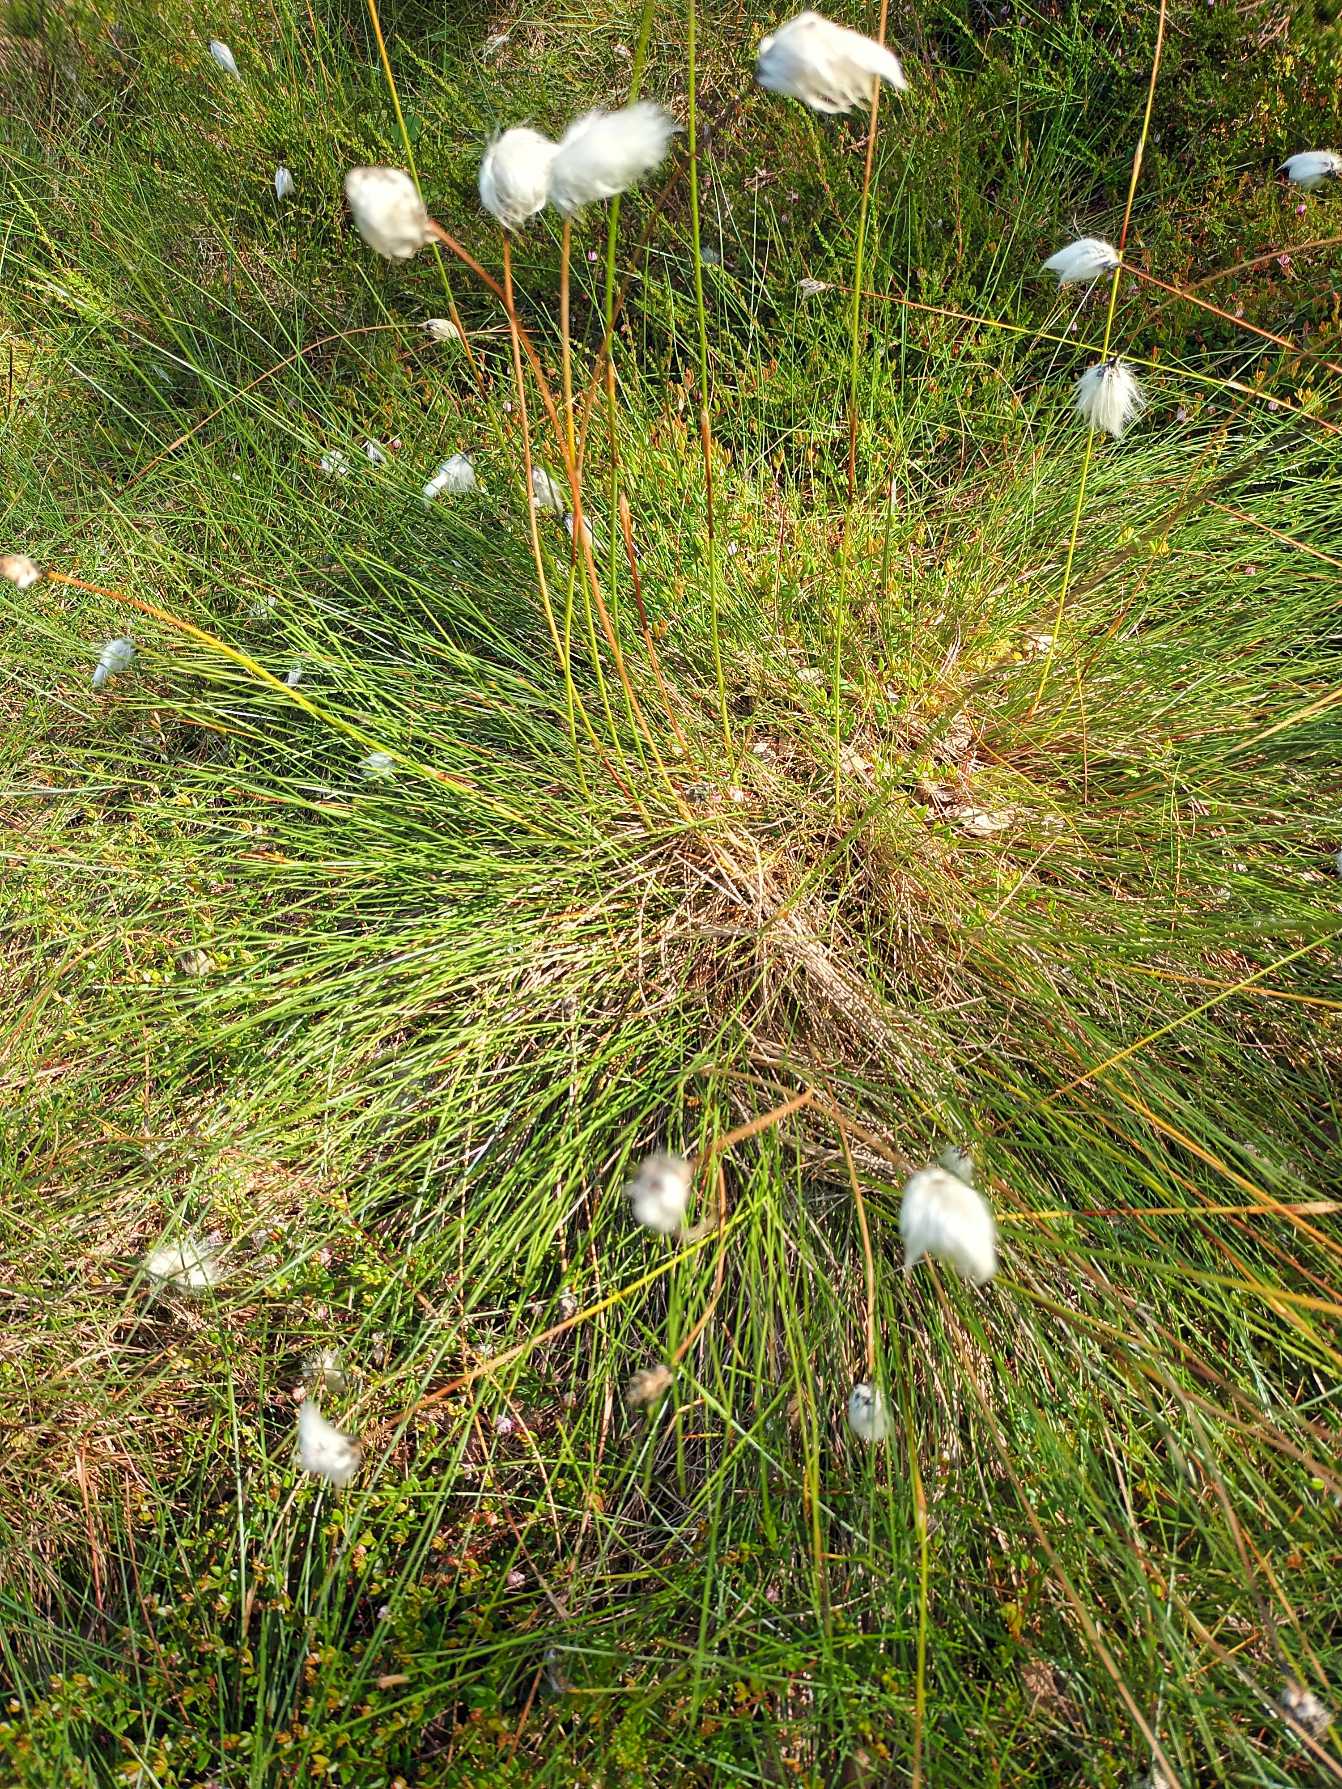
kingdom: Plantae
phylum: Tracheophyta
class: Liliopsida
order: Poales
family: Cyperaceae
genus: Eriophorum
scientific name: Eriophorum vaginatum
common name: Tue-kæruld
